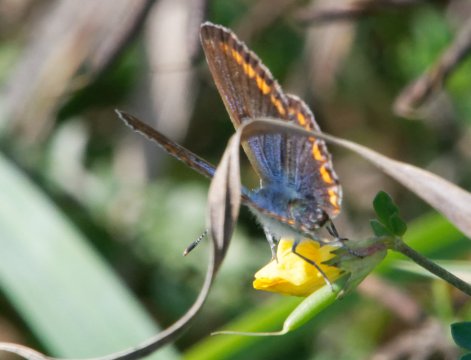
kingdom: Animalia
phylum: Arthropoda
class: Insecta
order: Lepidoptera
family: Lycaenidae
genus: Polyommatus
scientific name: Polyommatus icarus
